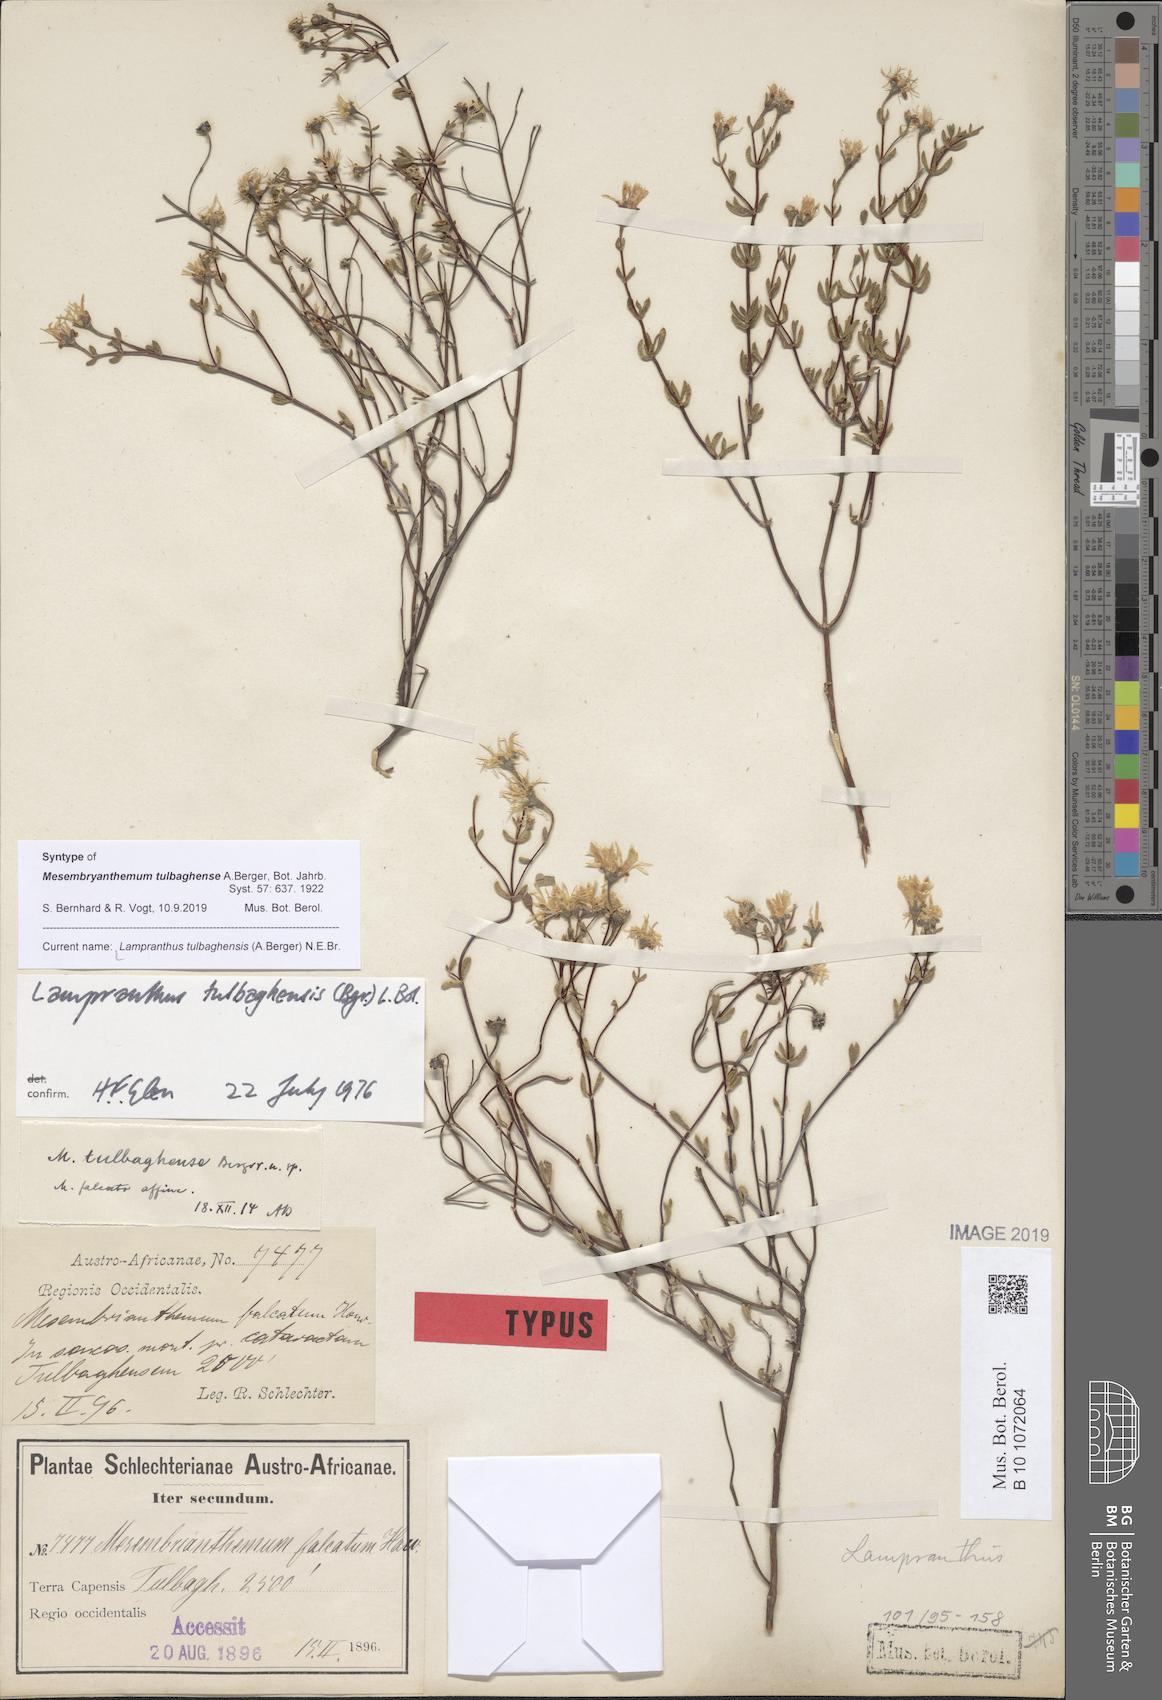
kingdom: Plantae
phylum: Tracheophyta
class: Magnoliopsida
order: Caryophyllales
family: Aizoaceae
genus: Lampranthus
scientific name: Lampranthus tulbaghensis
